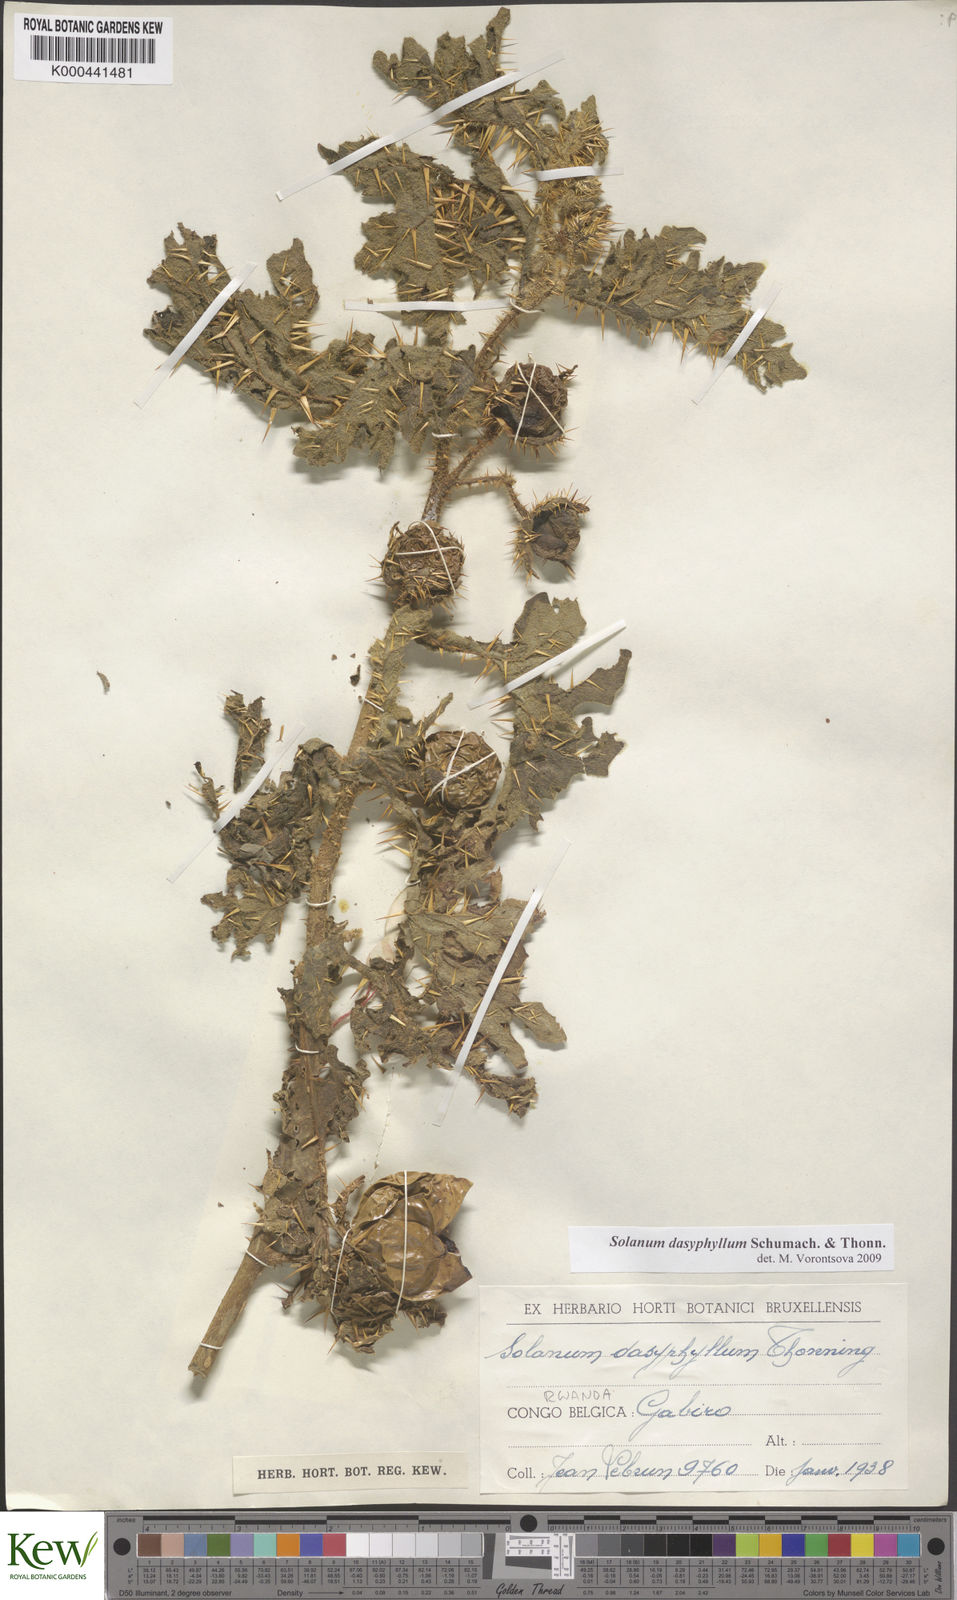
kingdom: Plantae
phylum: Tracheophyta
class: Magnoliopsida
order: Solanales
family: Solanaceae
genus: Solanum
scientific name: Solanum dasyphyllum
